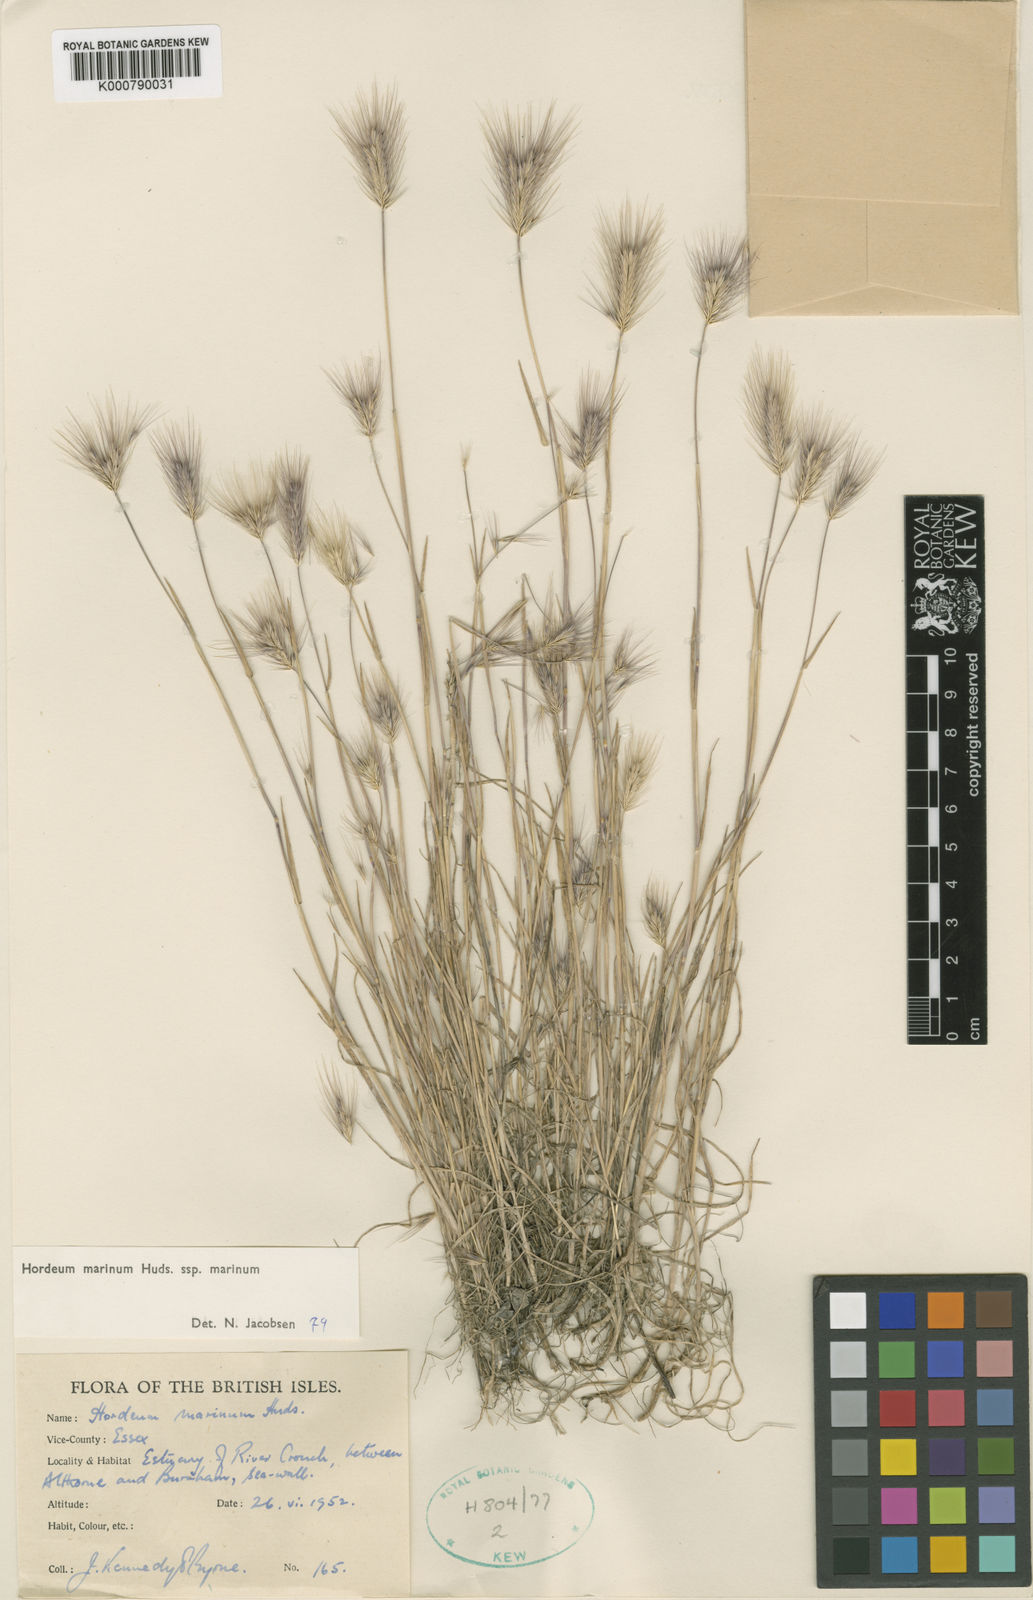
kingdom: Plantae
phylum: Tracheophyta
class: Liliopsida
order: Poales
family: Poaceae
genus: Hordeum
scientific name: Hordeum marinum
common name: Sea barley
